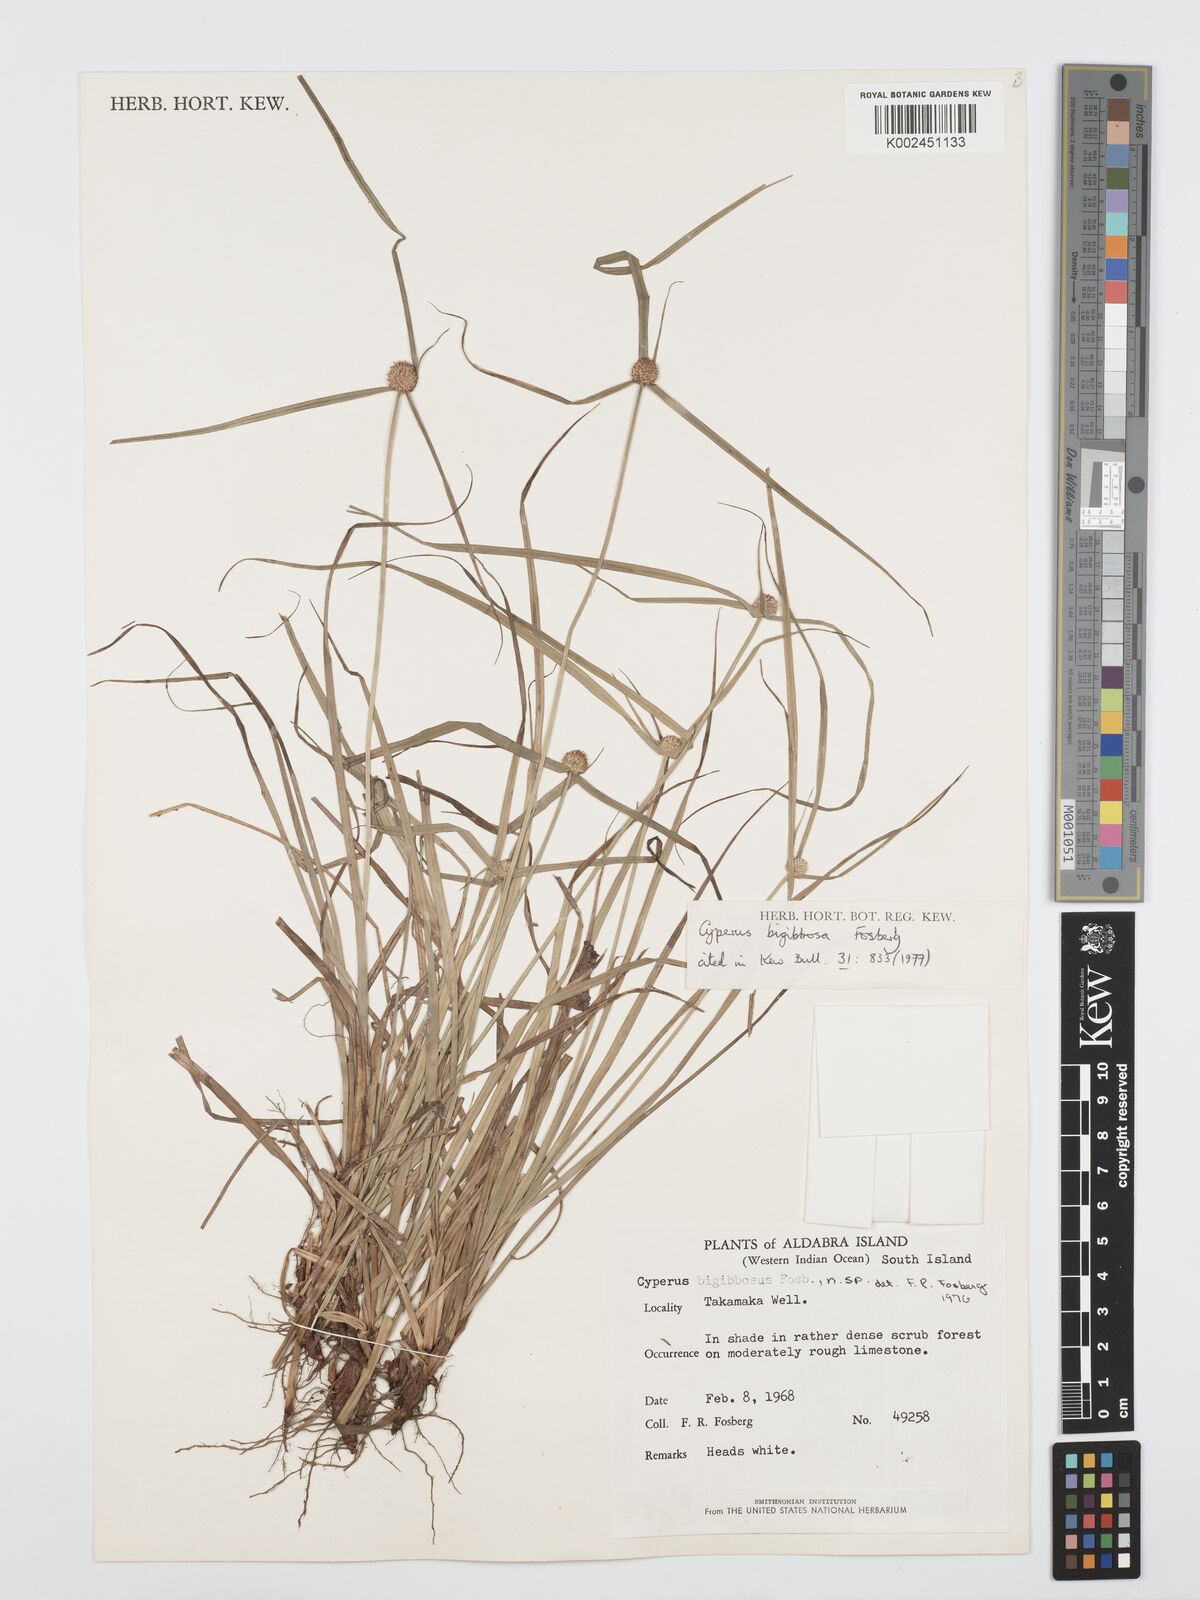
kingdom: Plantae
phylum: Tracheophyta
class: Liliopsida
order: Poales
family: Cyperaceae
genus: Cyperus
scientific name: Cyperus bigibbosa
